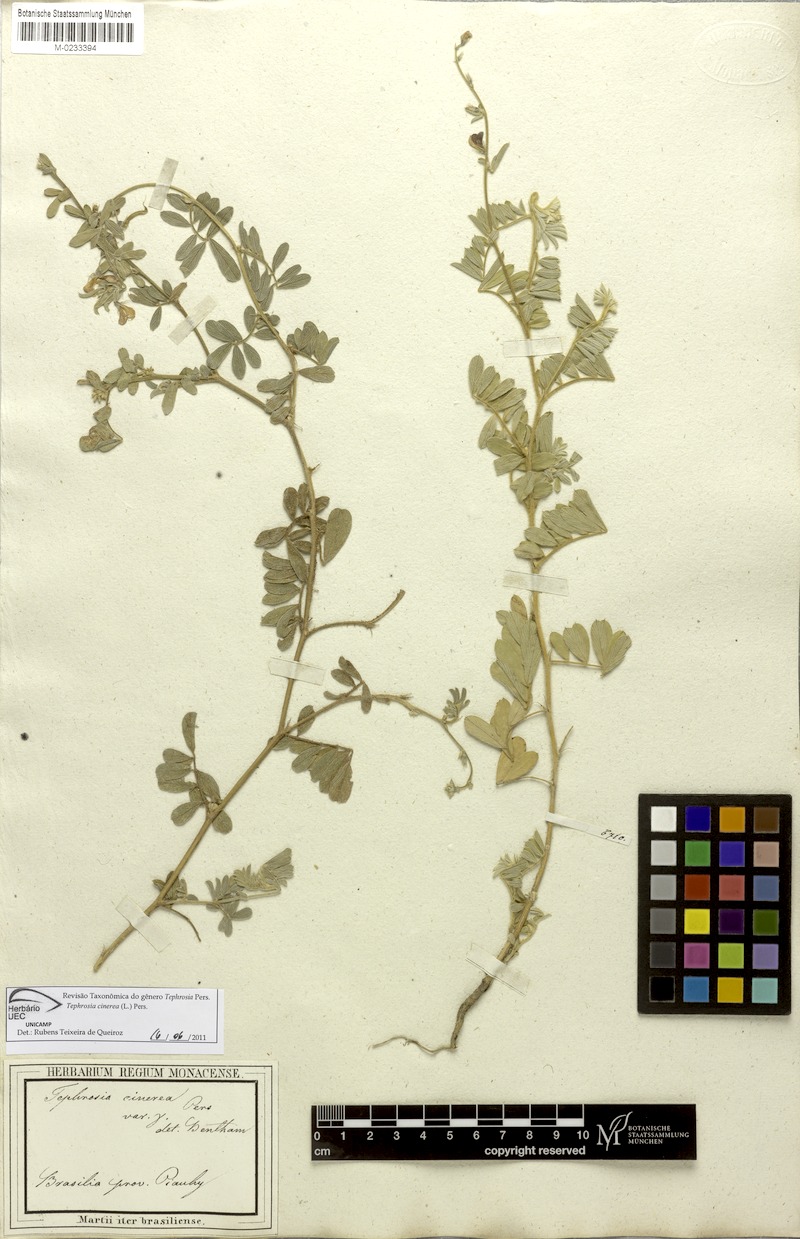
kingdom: Plantae
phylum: Tracheophyta
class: Magnoliopsida
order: Fabales
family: Fabaceae
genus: Tephrosia
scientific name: Tephrosia cinerea
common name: Ashen hoarypea
